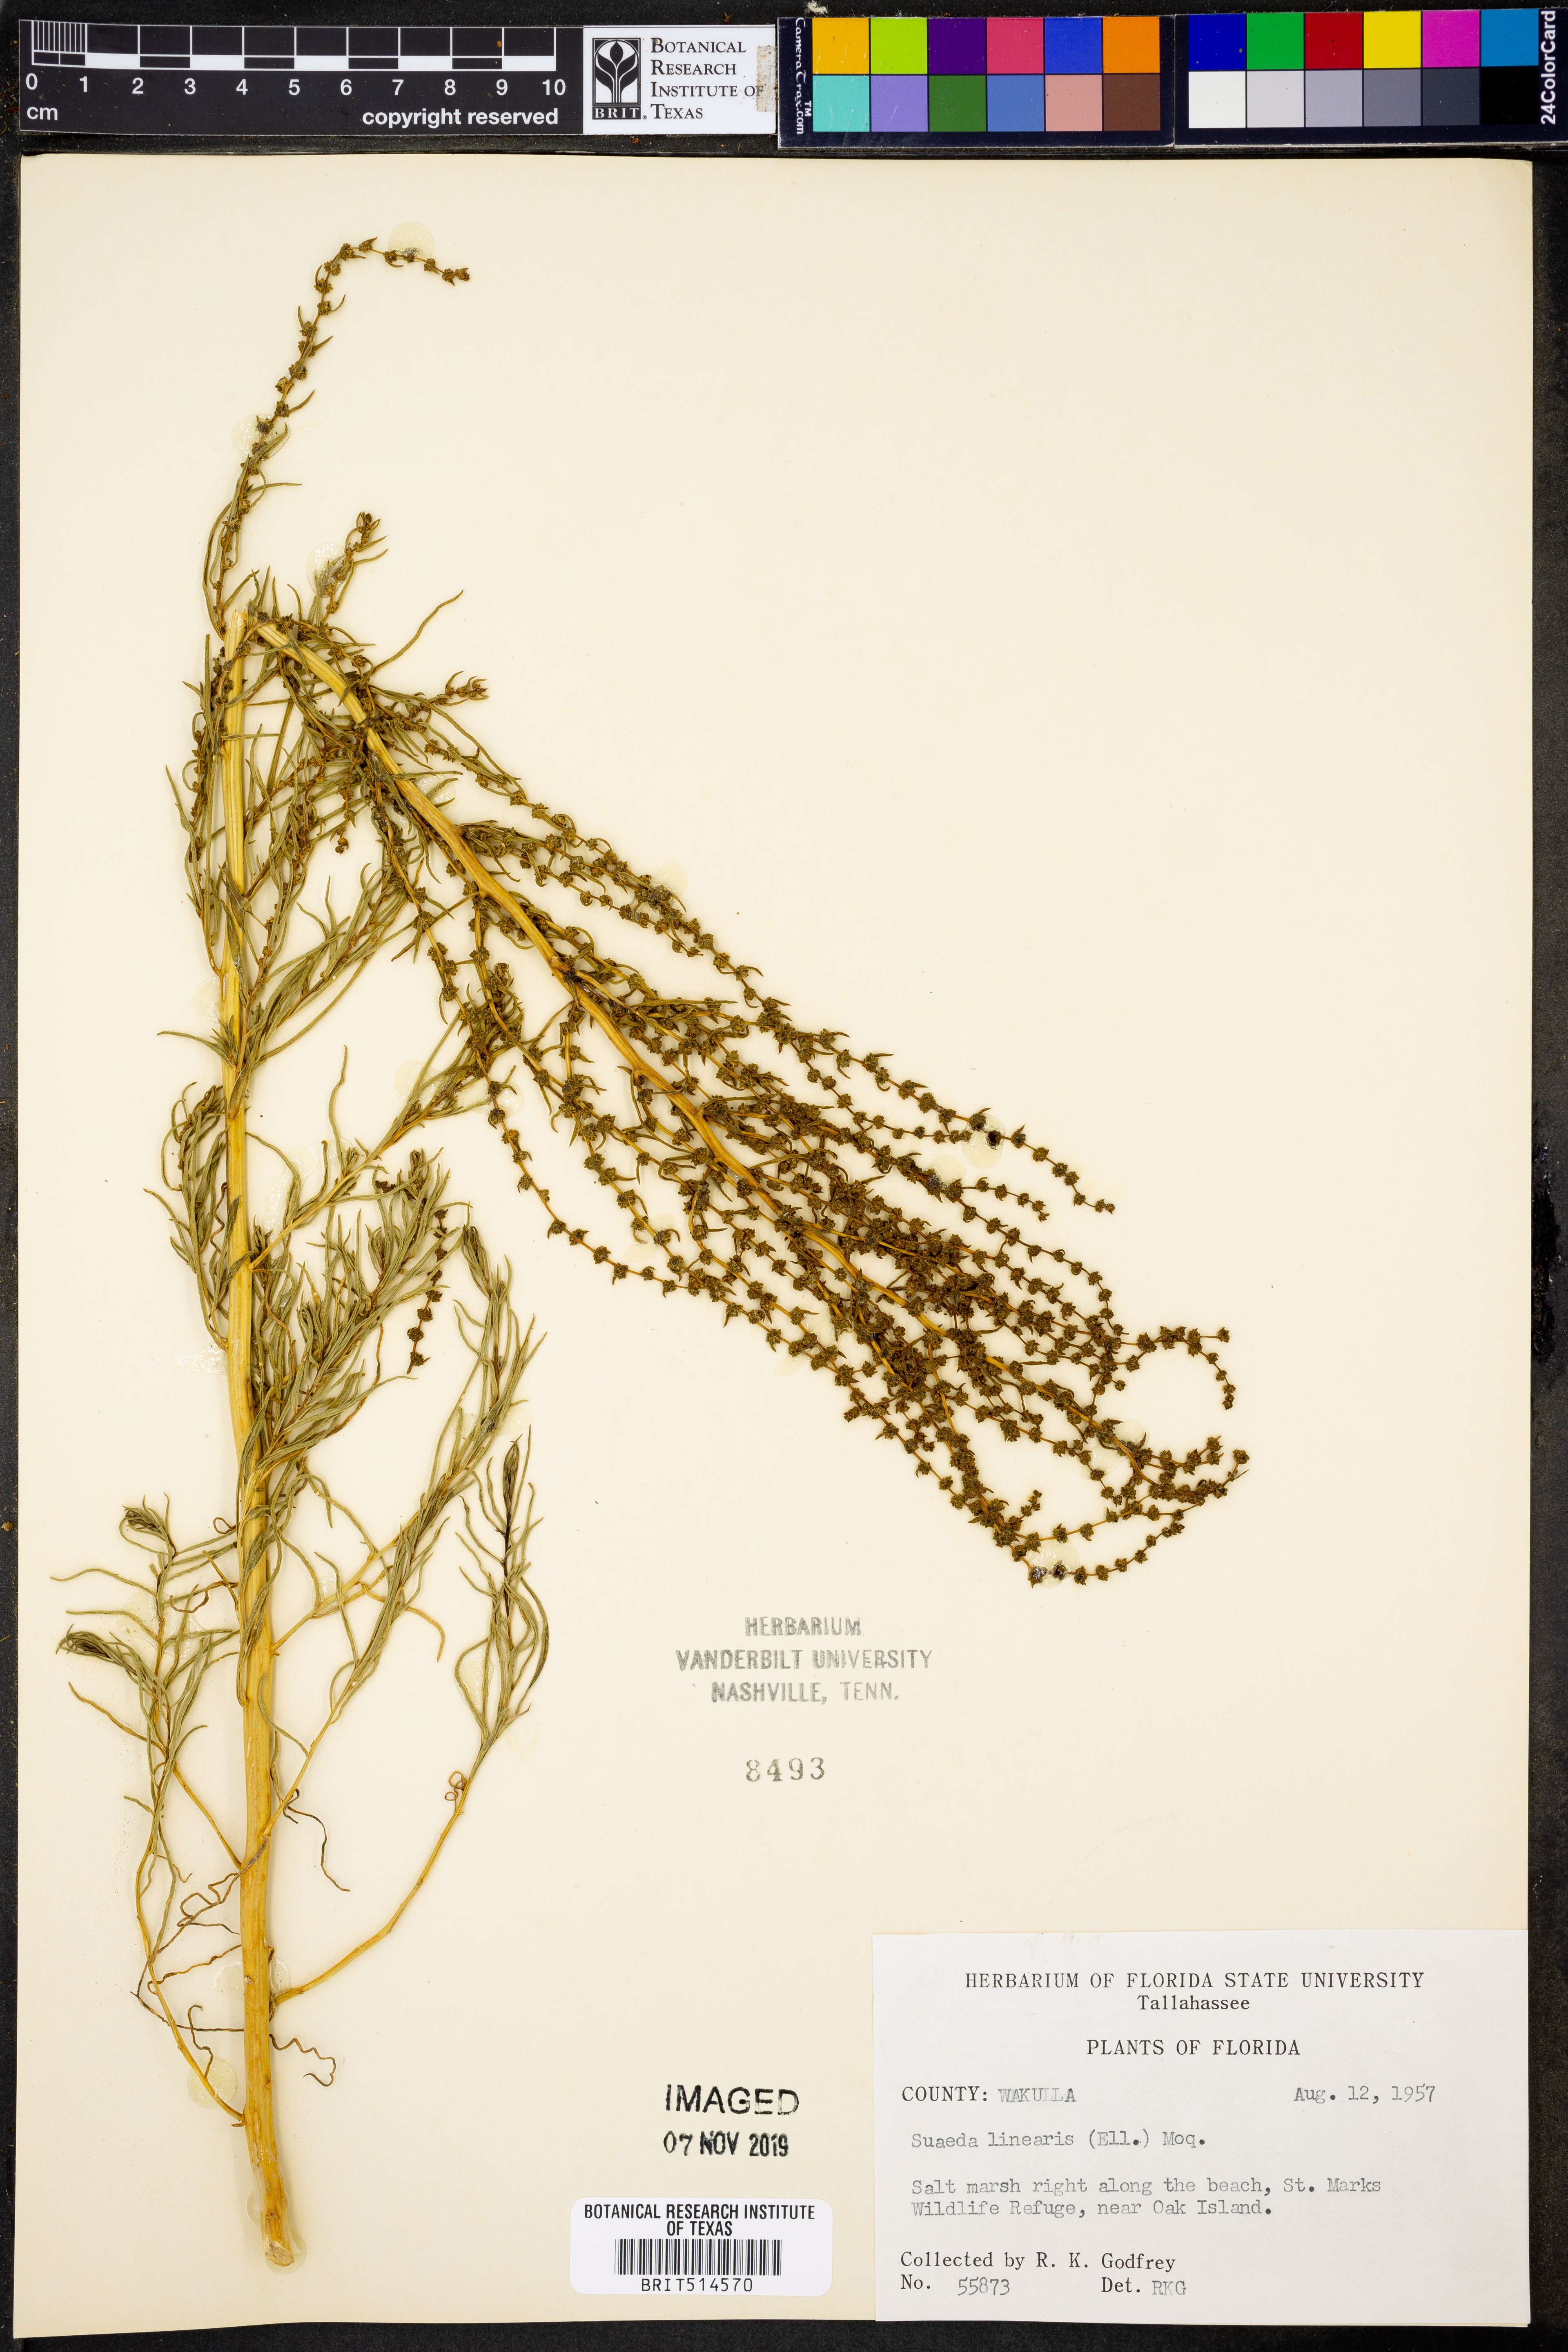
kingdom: Plantae
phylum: Tracheophyta
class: Magnoliopsida
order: Caryophyllales
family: Amaranthaceae
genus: Suaeda
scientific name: Suaeda linearis
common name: Annual seepweed
